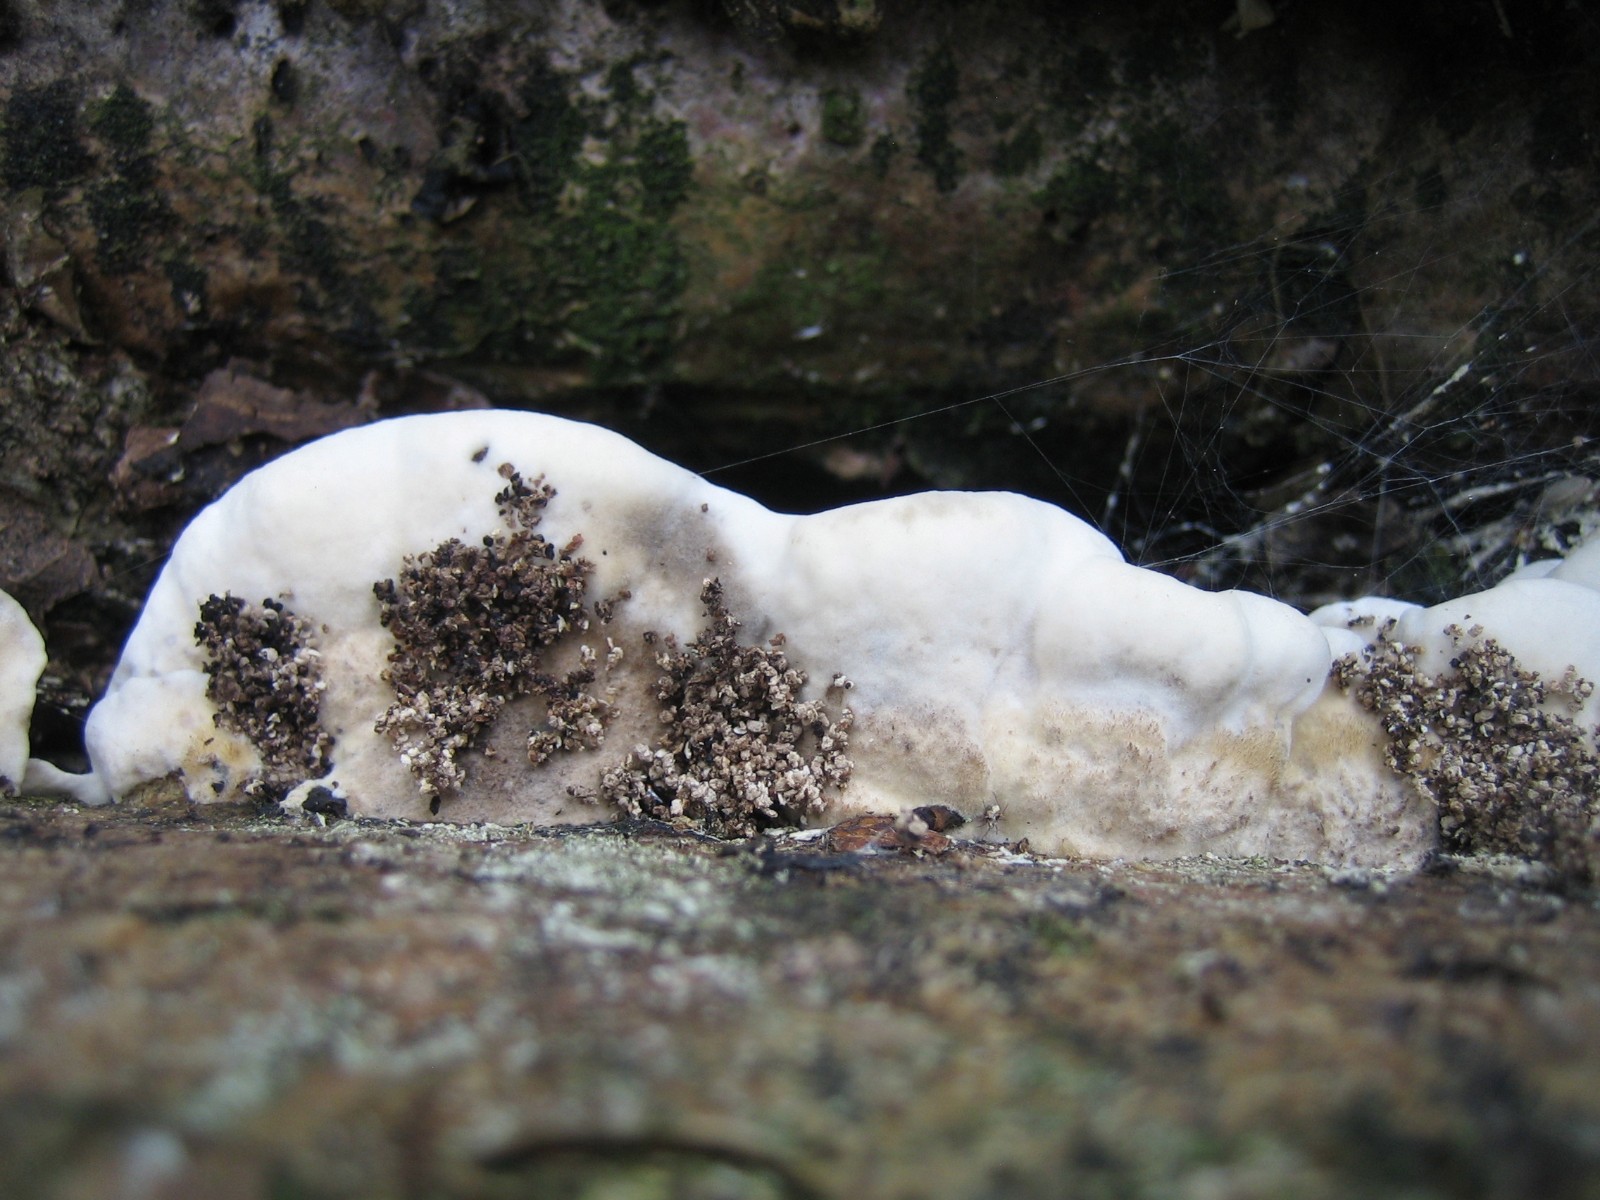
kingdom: Fungi
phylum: Basidiomycota
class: Agaricomycetes
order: Polyporales
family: Polyporaceae
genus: Trametes
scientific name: Trametes hirsuta
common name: håret læderporesvamp
